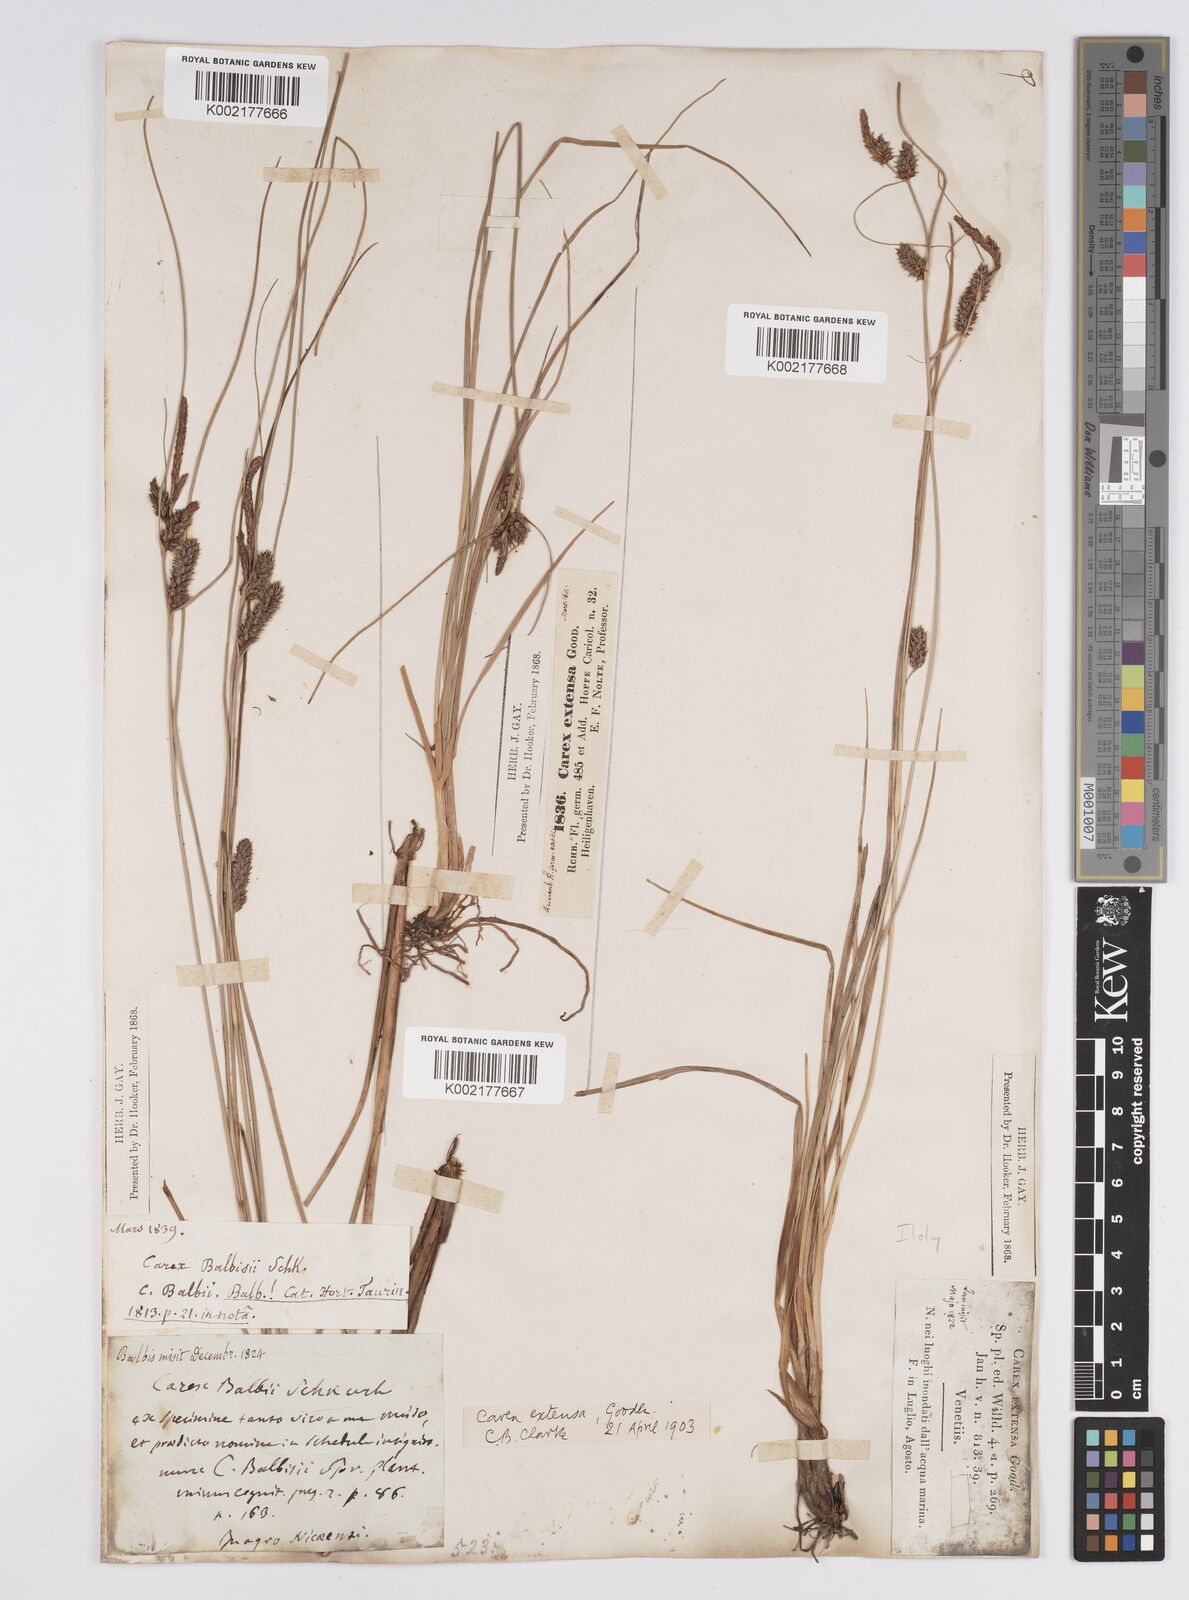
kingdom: Plantae
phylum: Tracheophyta
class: Liliopsida
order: Poales
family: Cyperaceae
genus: Carex
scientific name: Carex extensa
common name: Long-bracted sedge
